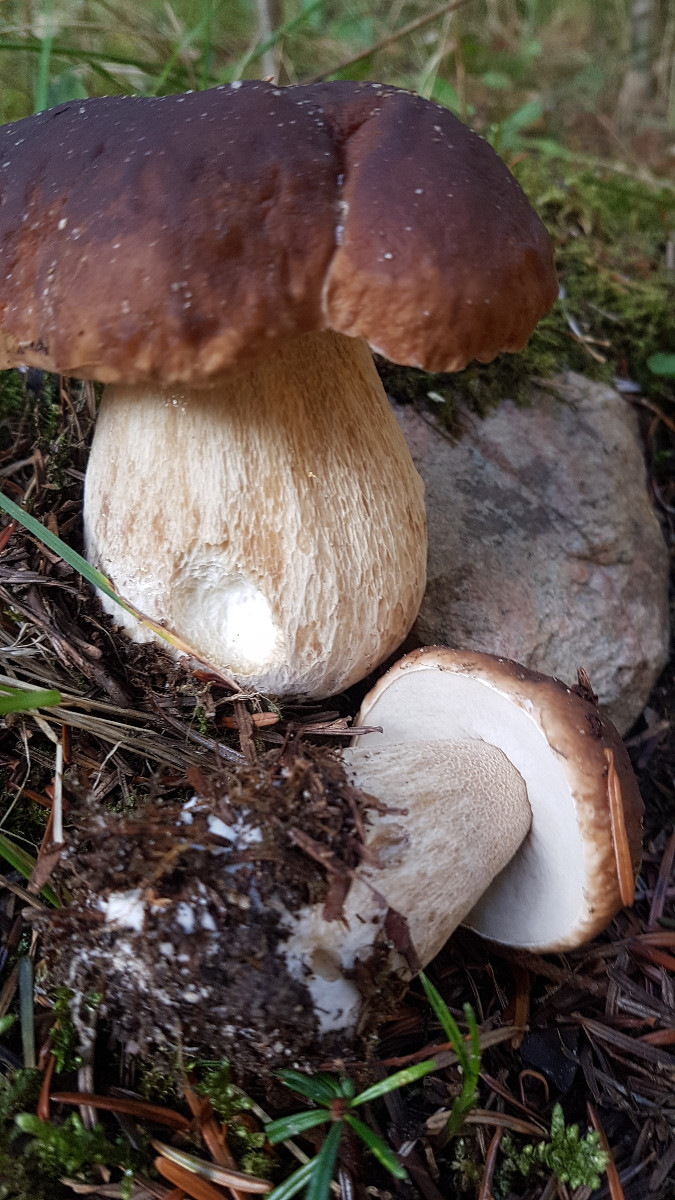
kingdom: Fungi
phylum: Basidiomycota
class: Agaricomycetes
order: Boletales
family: Boletaceae
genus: Boletus
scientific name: Boletus edulis
